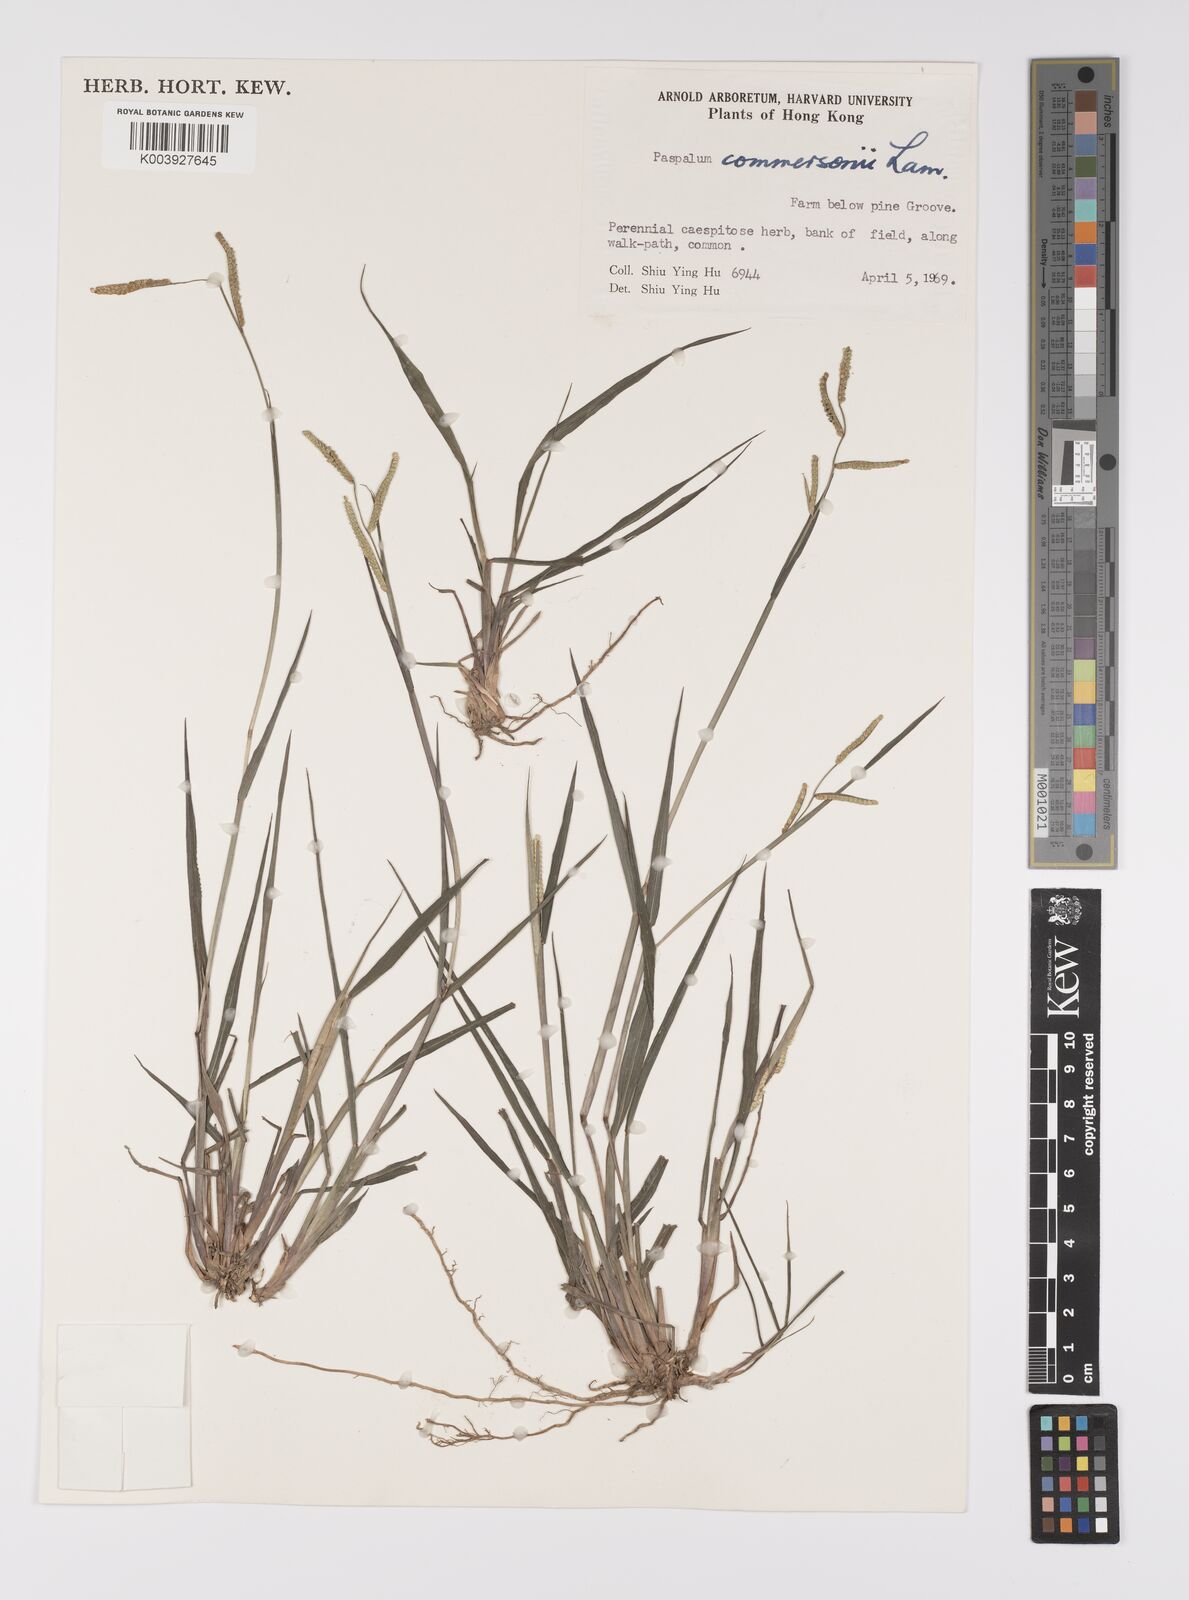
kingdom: Plantae
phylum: Tracheophyta
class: Liliopsida
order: Poales
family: Poaceae
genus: Paspalum
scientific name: Paspalum orbiculare
